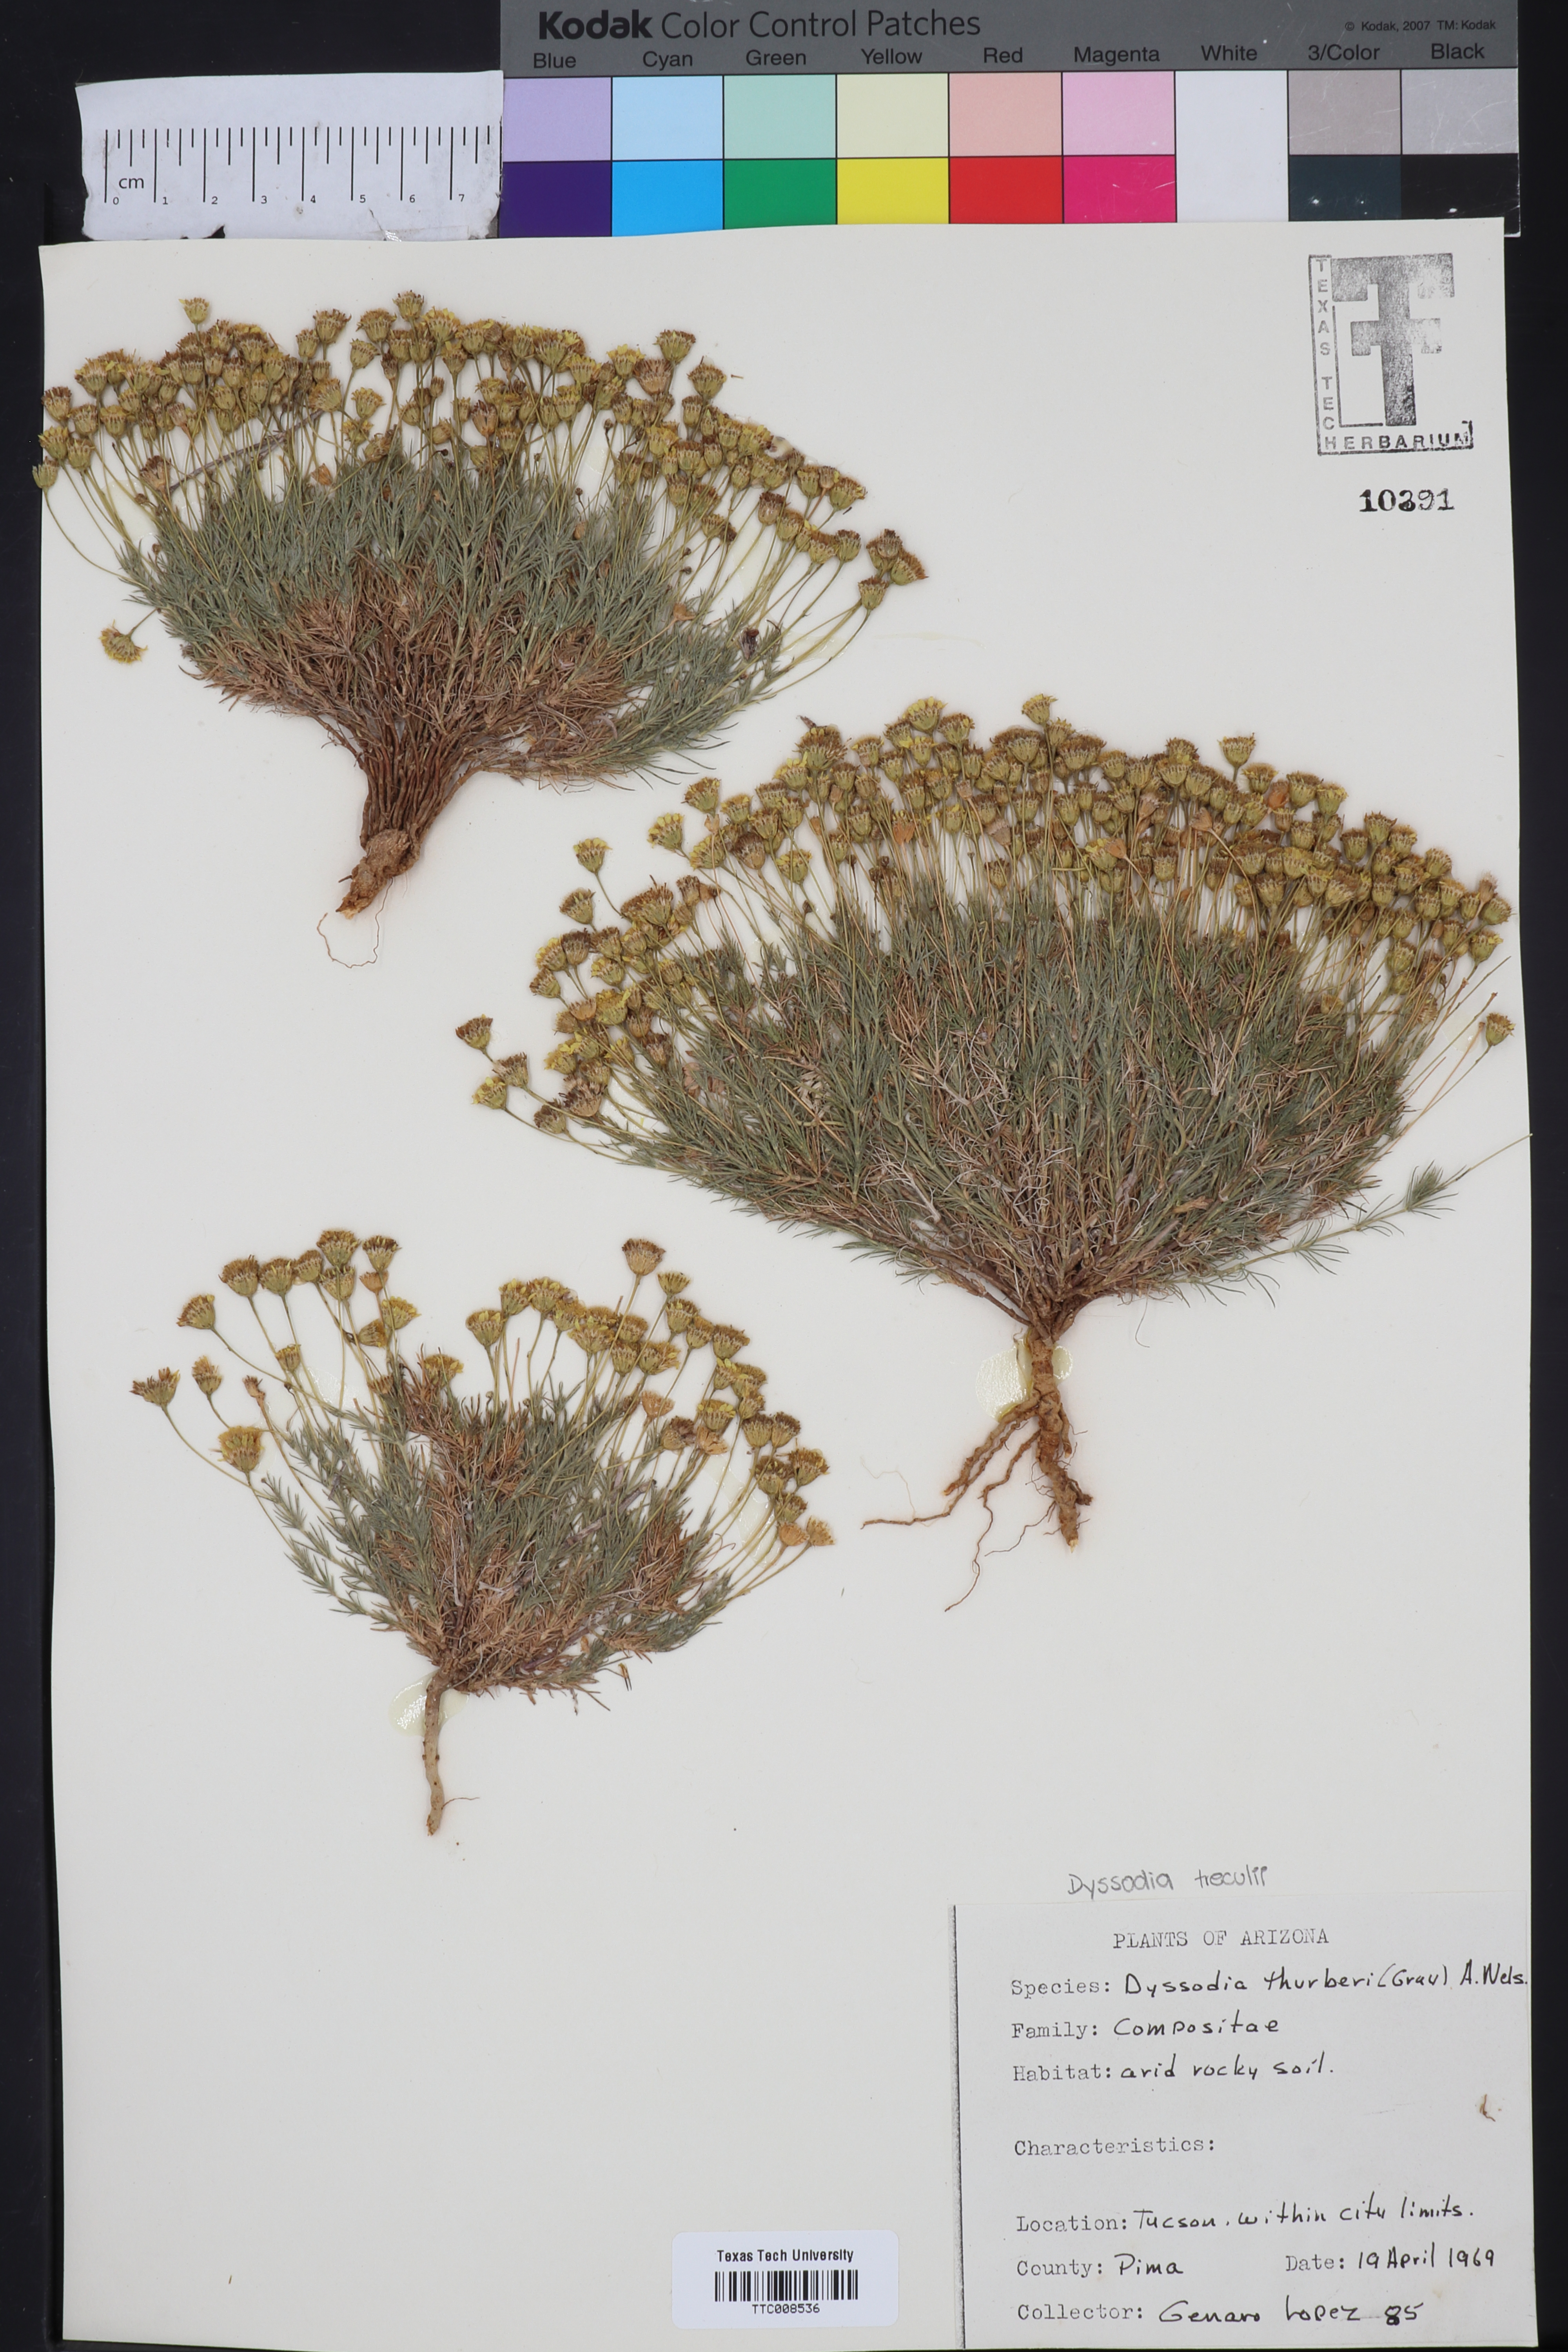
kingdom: Plantae
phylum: Tracheophyta
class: Magnoliopsida
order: Asterales
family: Asteraceae
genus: Thymophylla
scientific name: Thymophylla pentachaeta
